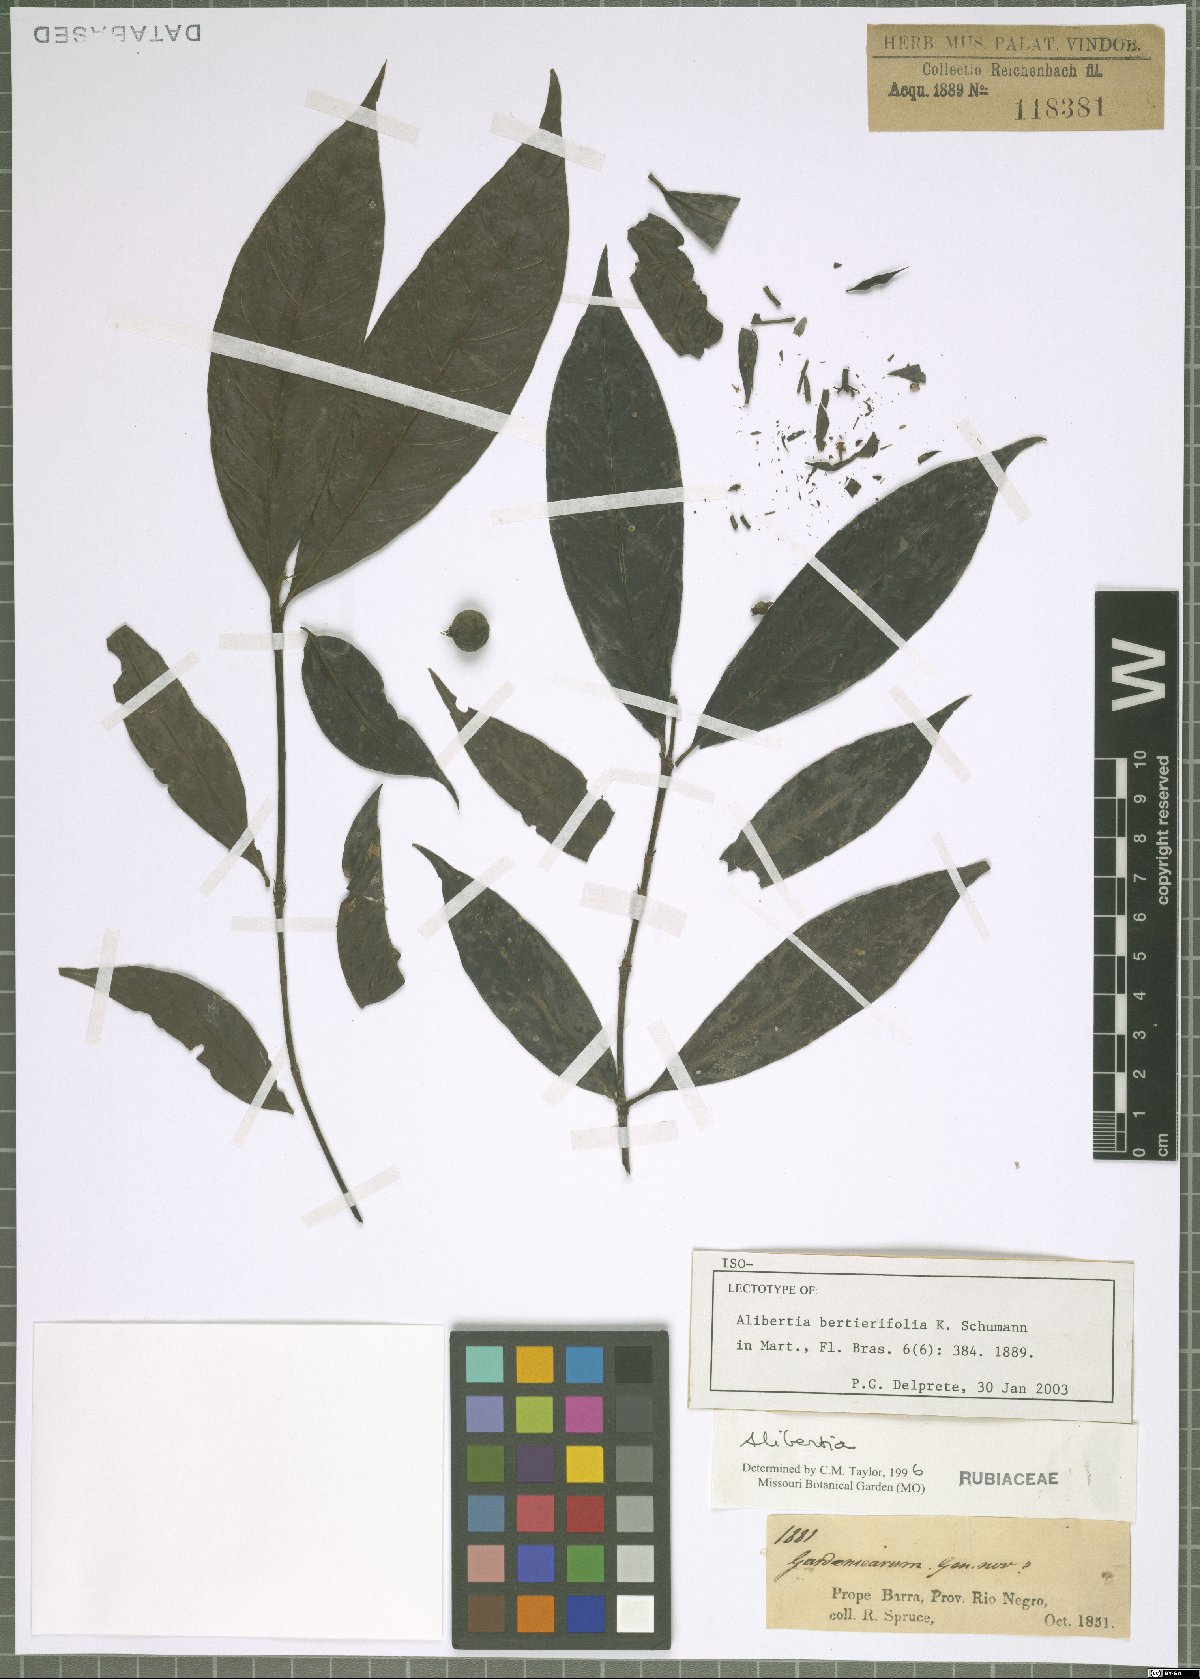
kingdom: Plantae
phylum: Tracheophyta
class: Magnoliopsida
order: Gentianales
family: Rubiaceae
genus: Alibertia
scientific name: Alibertia bertierifolia
